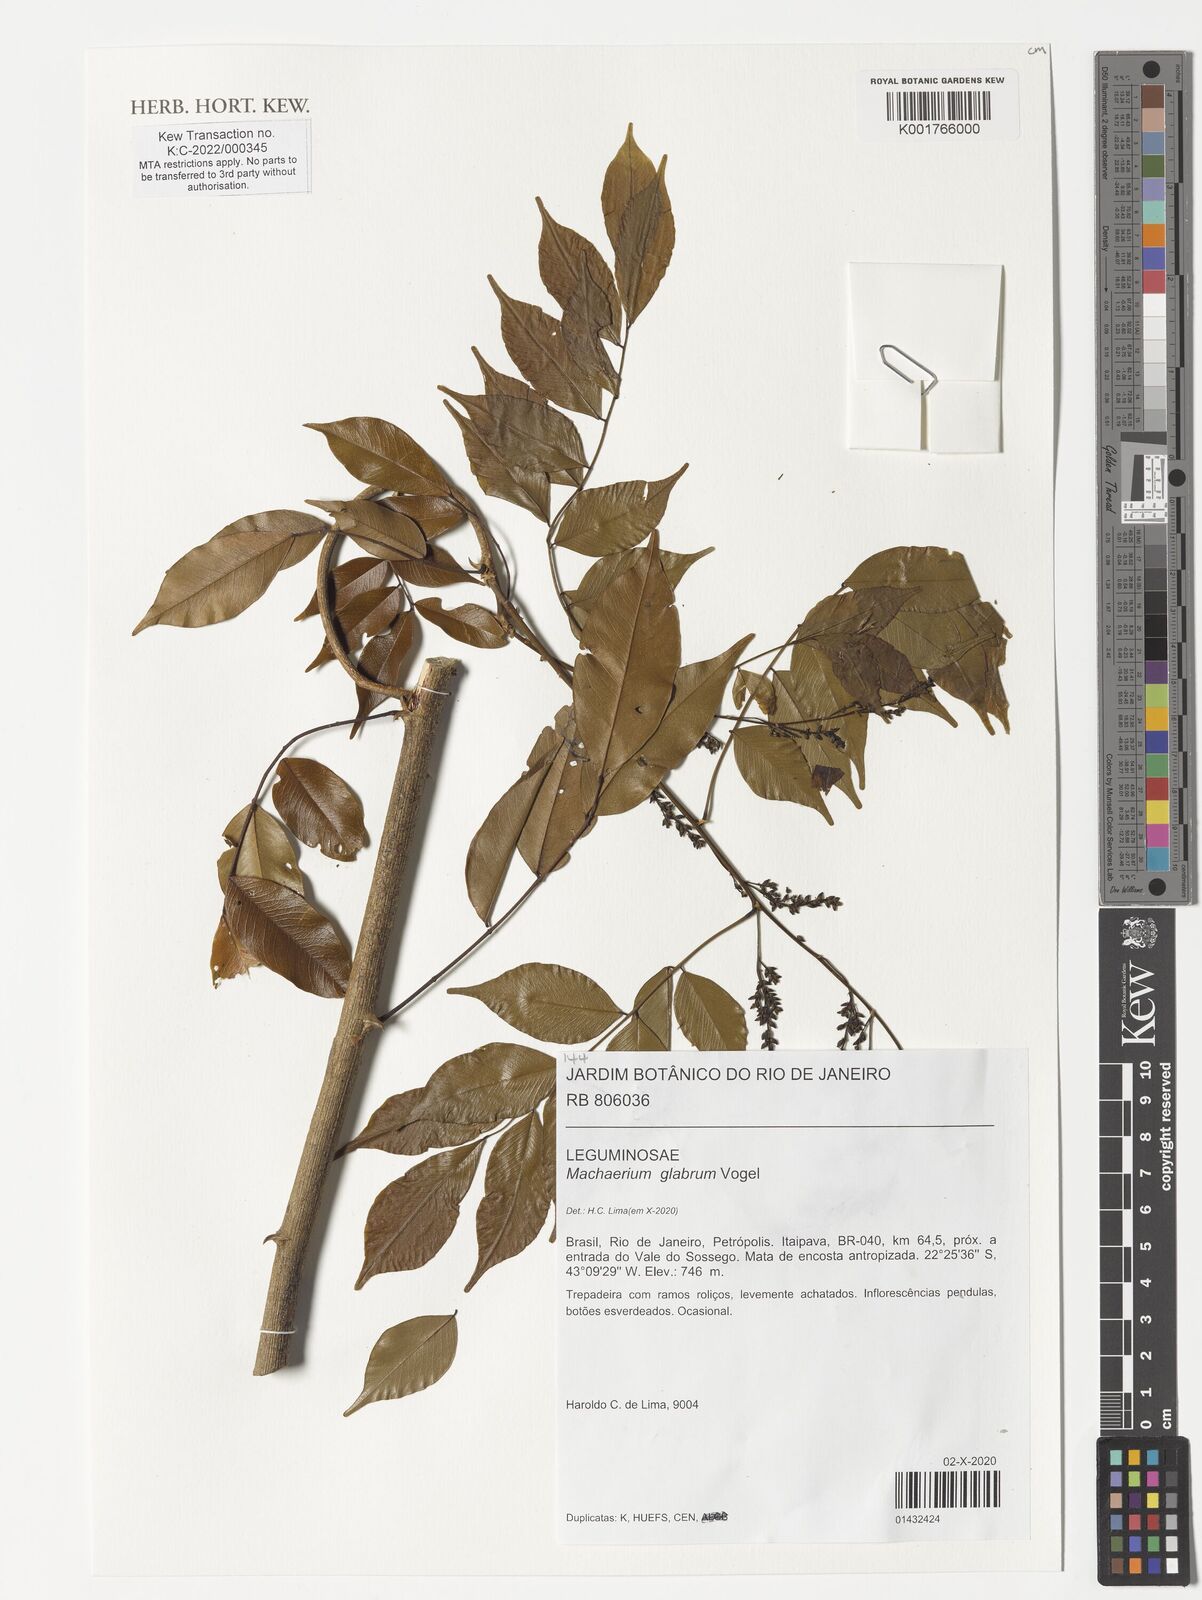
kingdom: Plantae
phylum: Tracheophyta
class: Magnoliopsida
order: Fabales
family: Fabaceae
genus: Machaerium
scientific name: Machaerium glabrum
